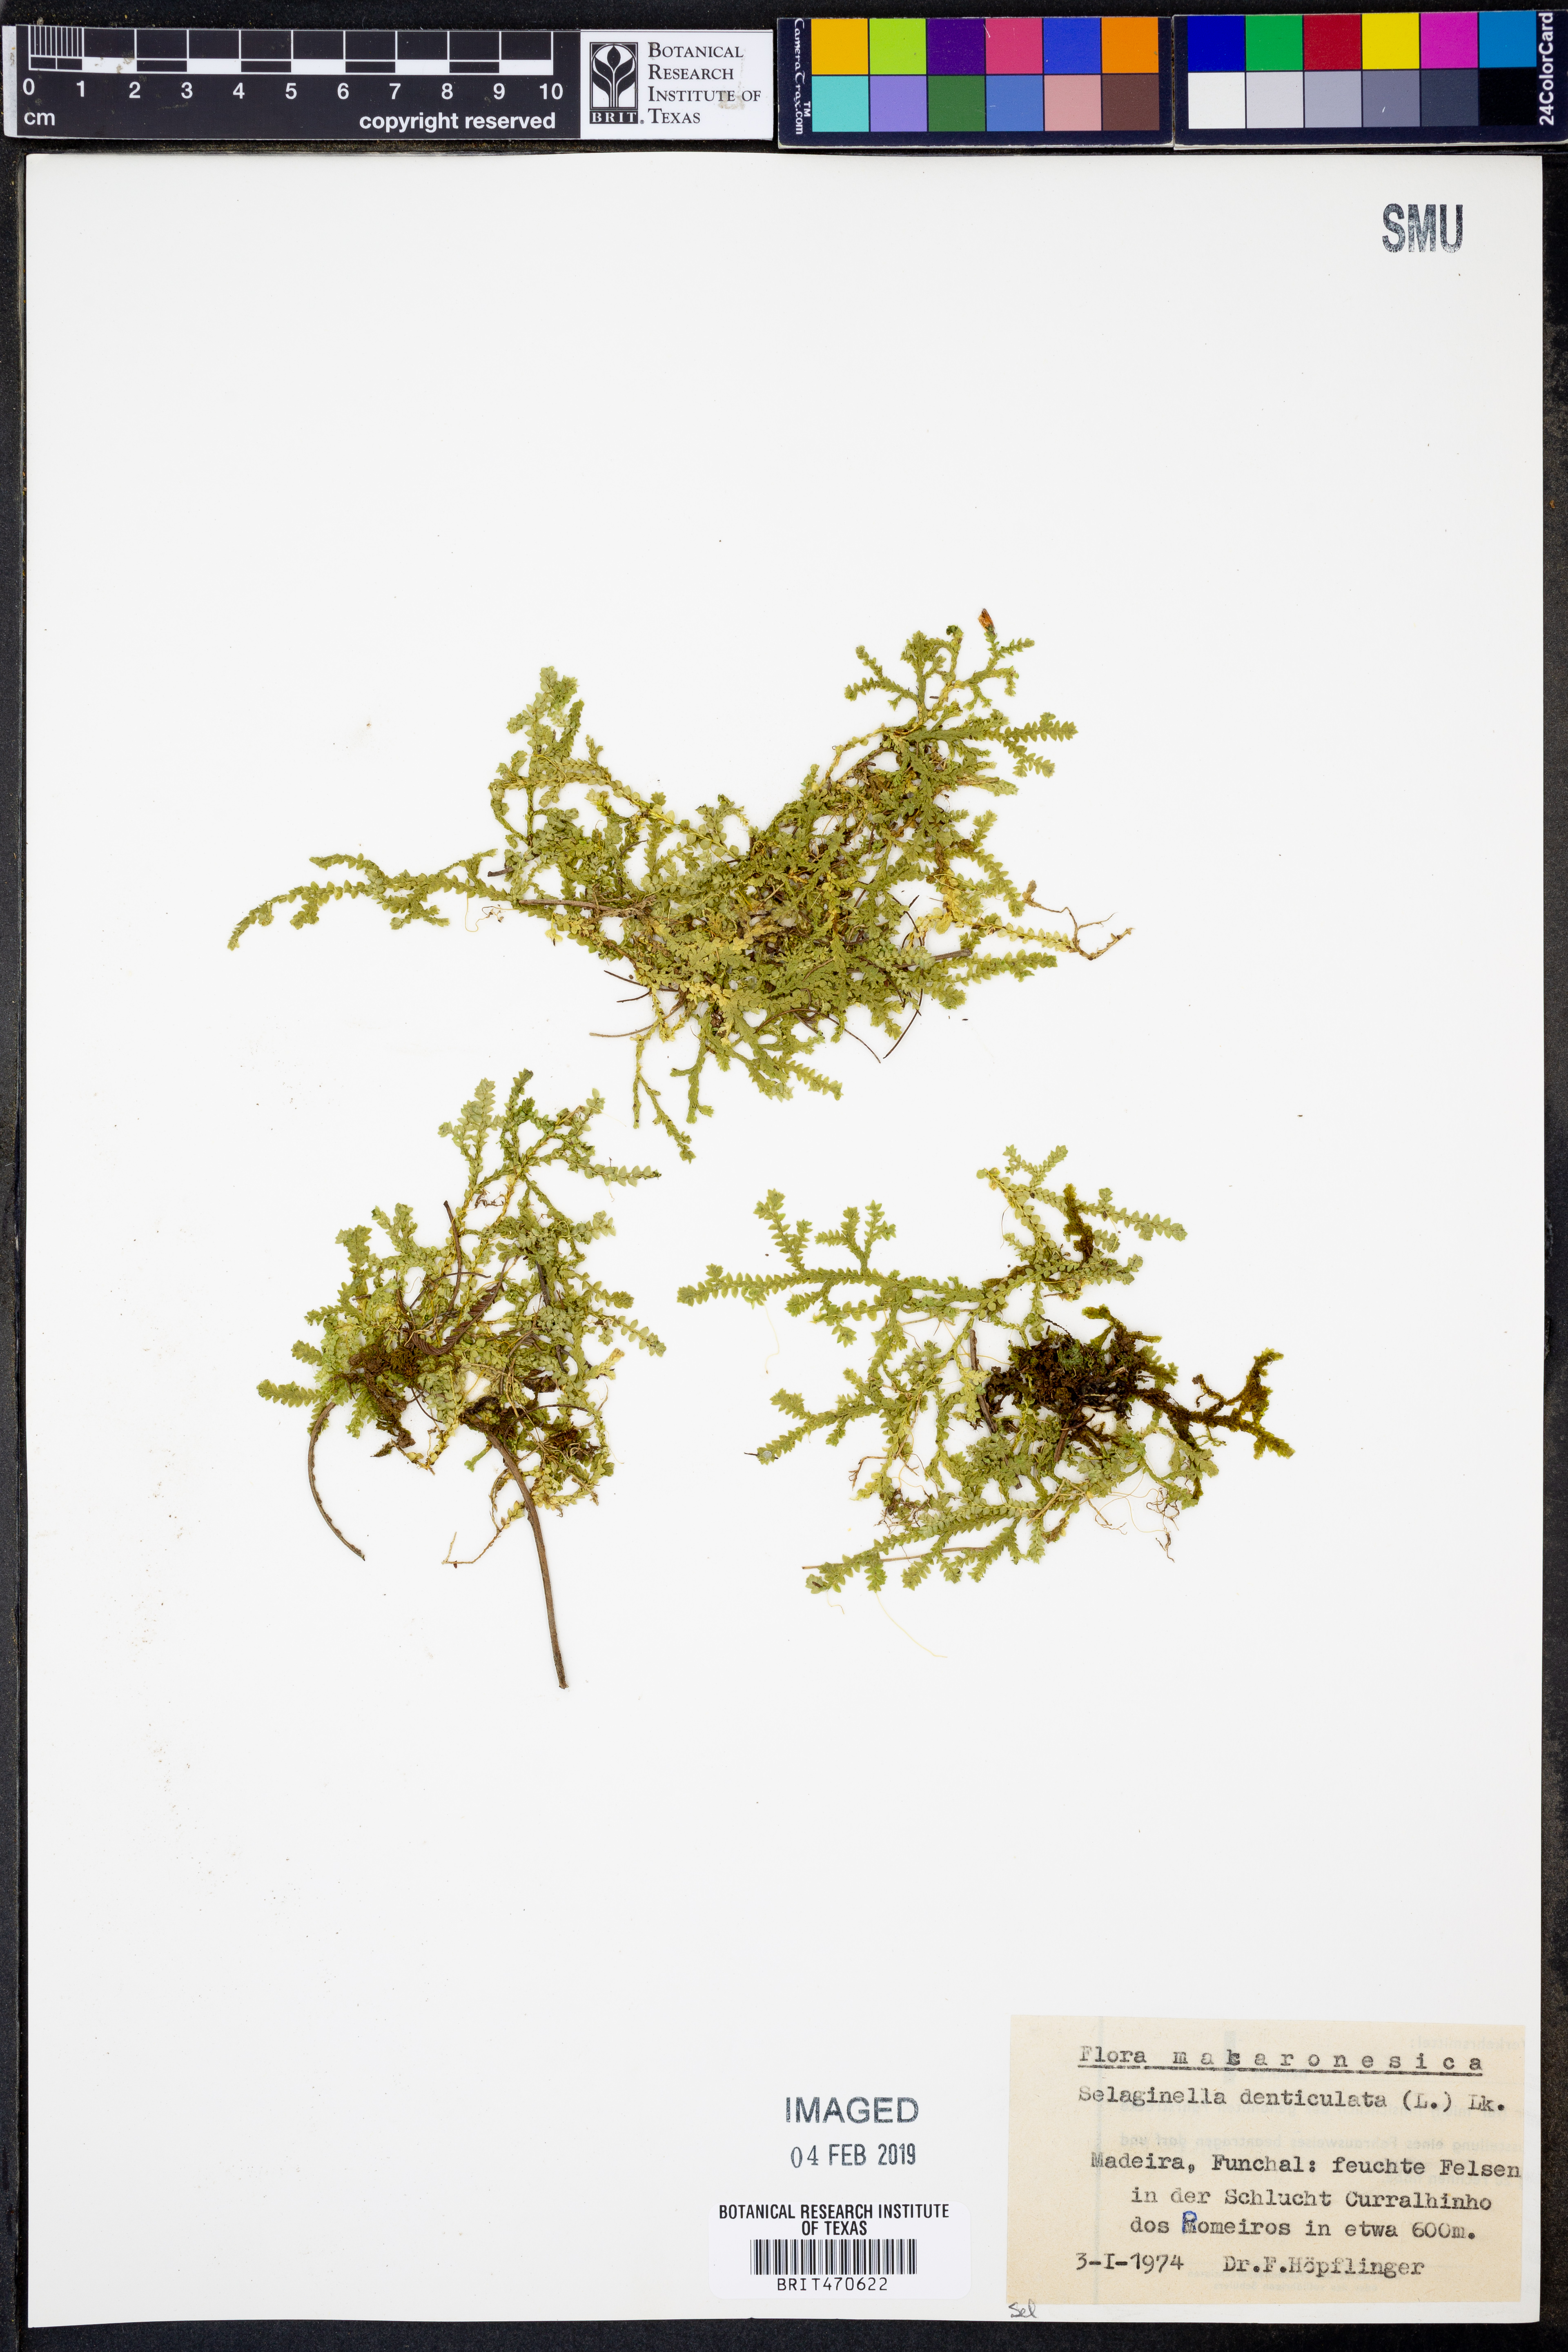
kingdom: Plantae
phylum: Tracheophyta
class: Lycopodiopsida
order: Selaginellales
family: Selaginellaceae
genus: Selaginella
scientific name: Selaginella denticulata
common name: Toothed-leaved clubmoss
